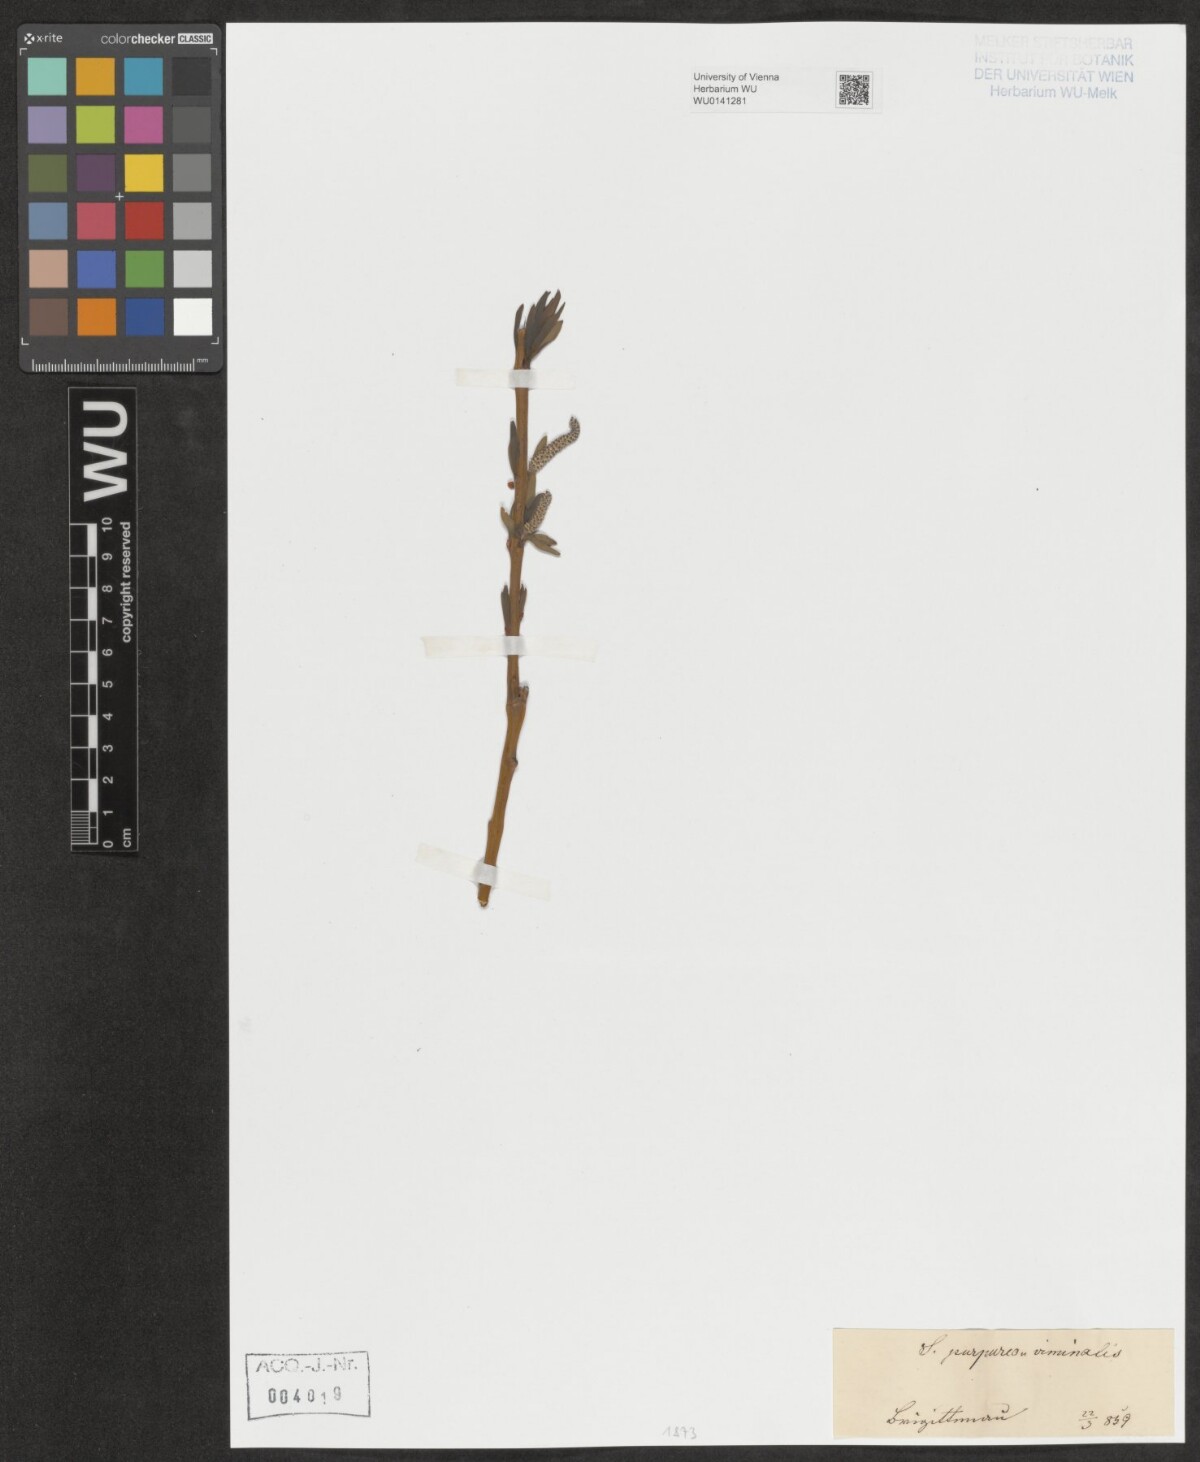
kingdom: Plantae
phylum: Tracheophyta
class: Magnoliopsida
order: Malpighiales
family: Salicaceae
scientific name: Salicaceae
